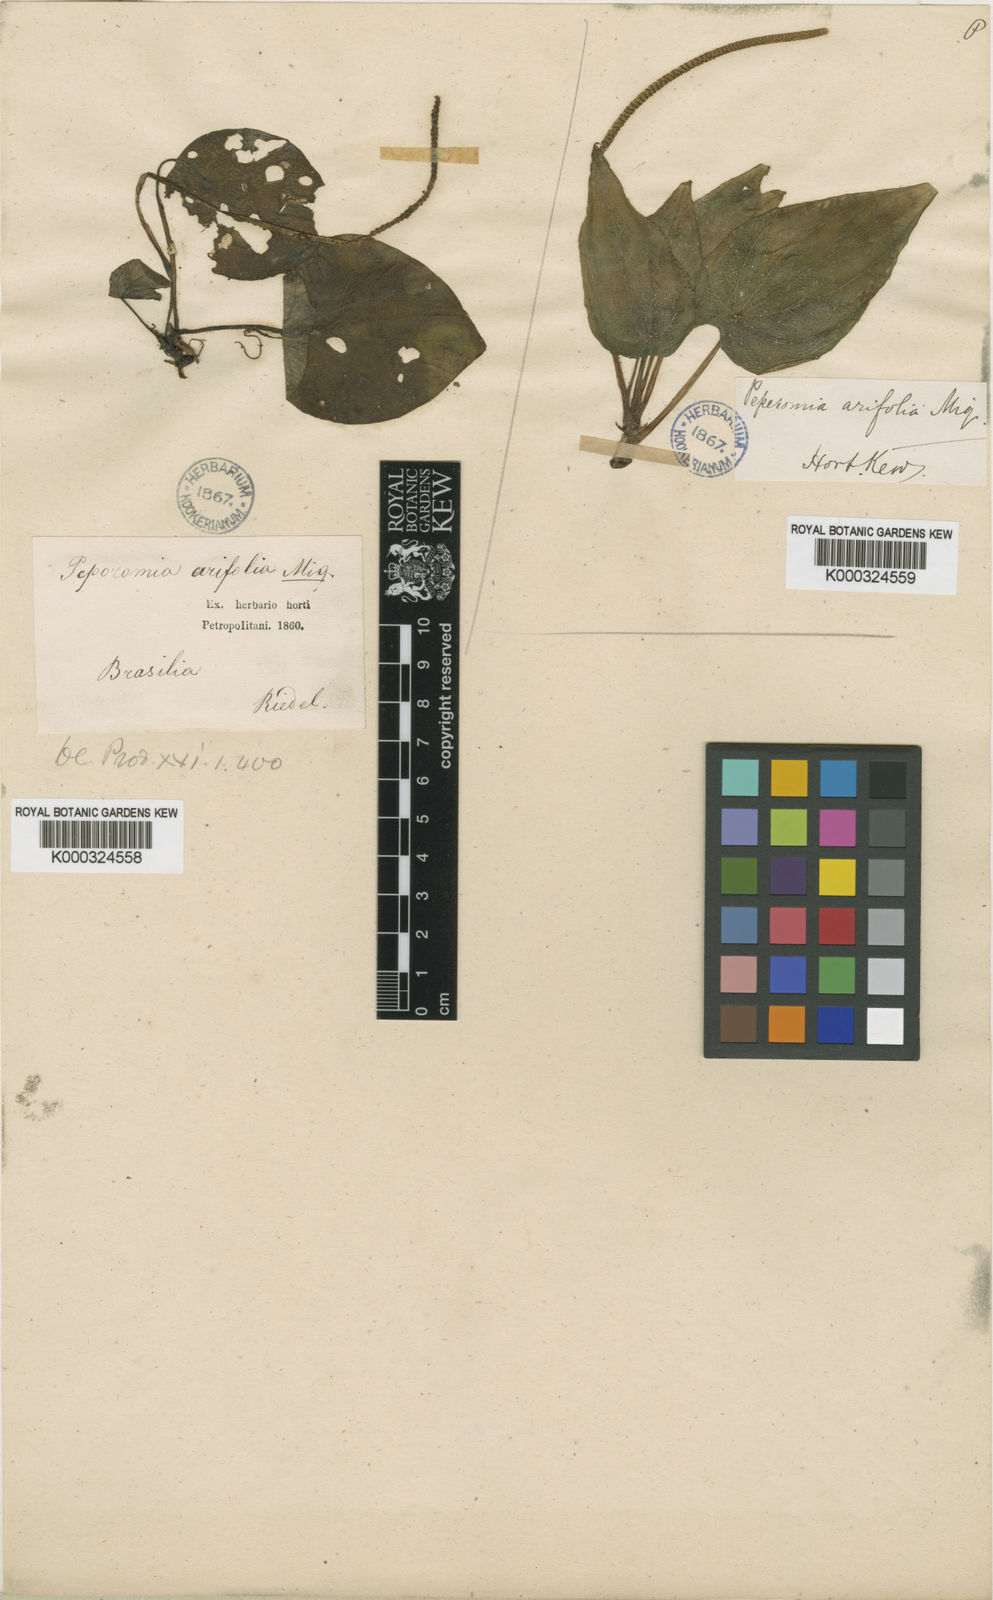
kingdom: Plantae
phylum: Tracheophyta
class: Magnoliopsida
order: Piperales
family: Piperaceae
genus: Peperomia
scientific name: Peperomia arifolia
